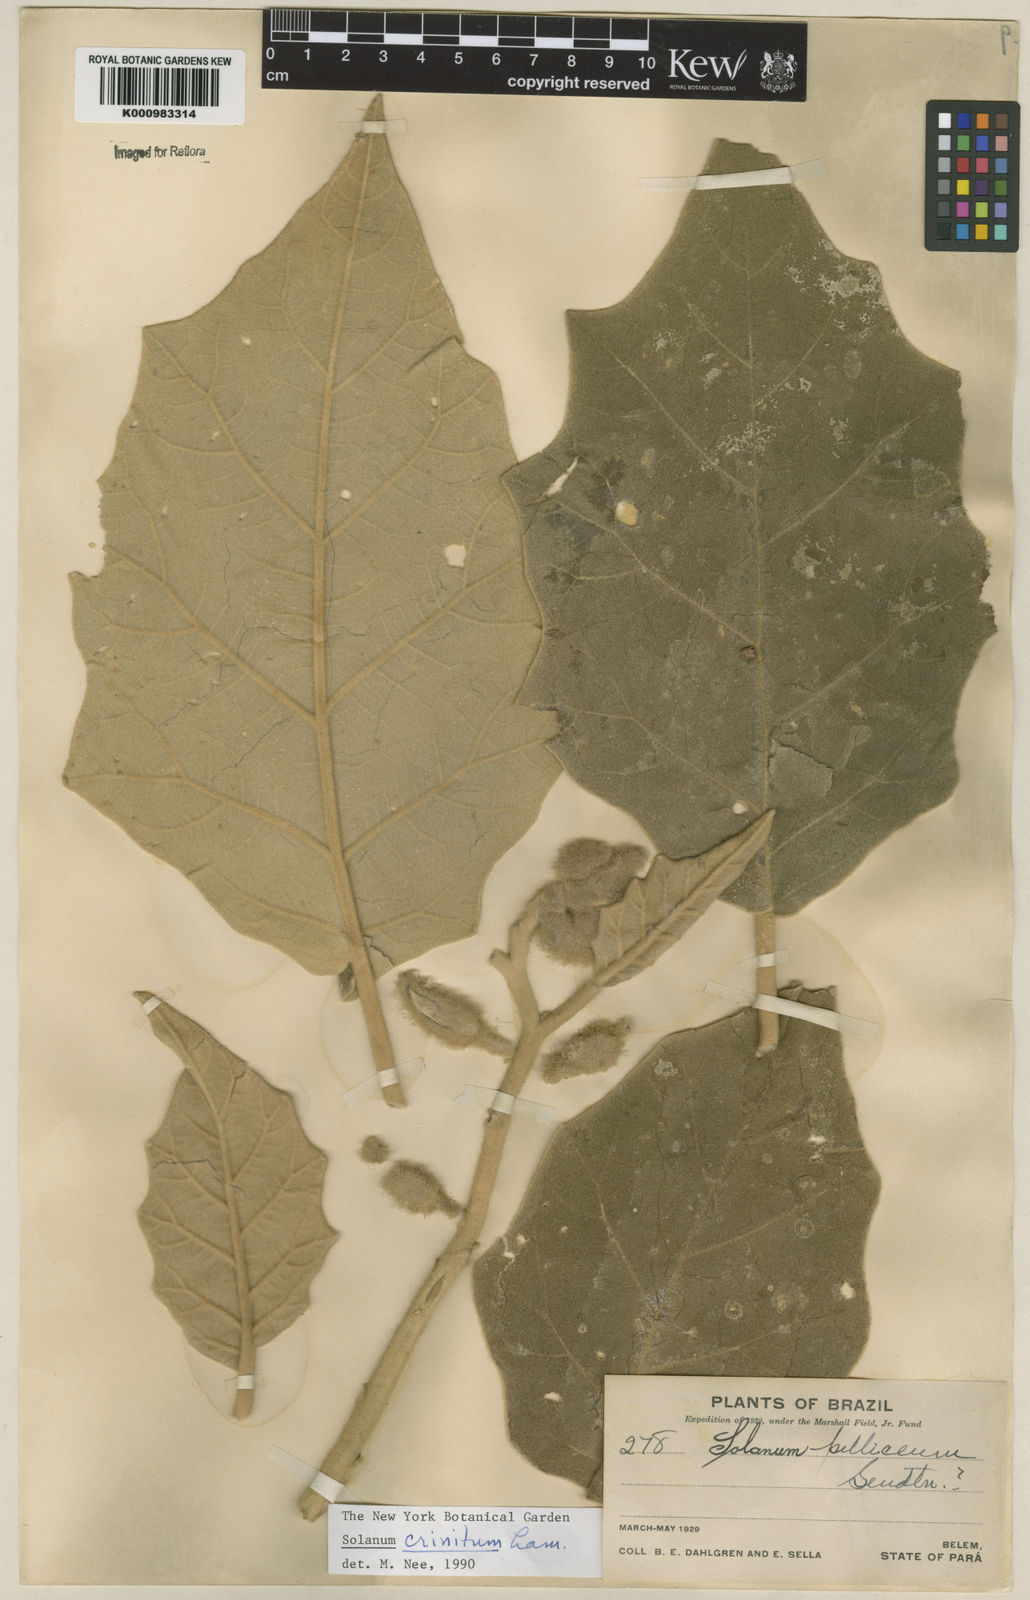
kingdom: Plantae
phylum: Tracheophyta
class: Magnoliopsida
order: Solanales
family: Solanaceae
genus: Solanum
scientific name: Solanum crinitum
